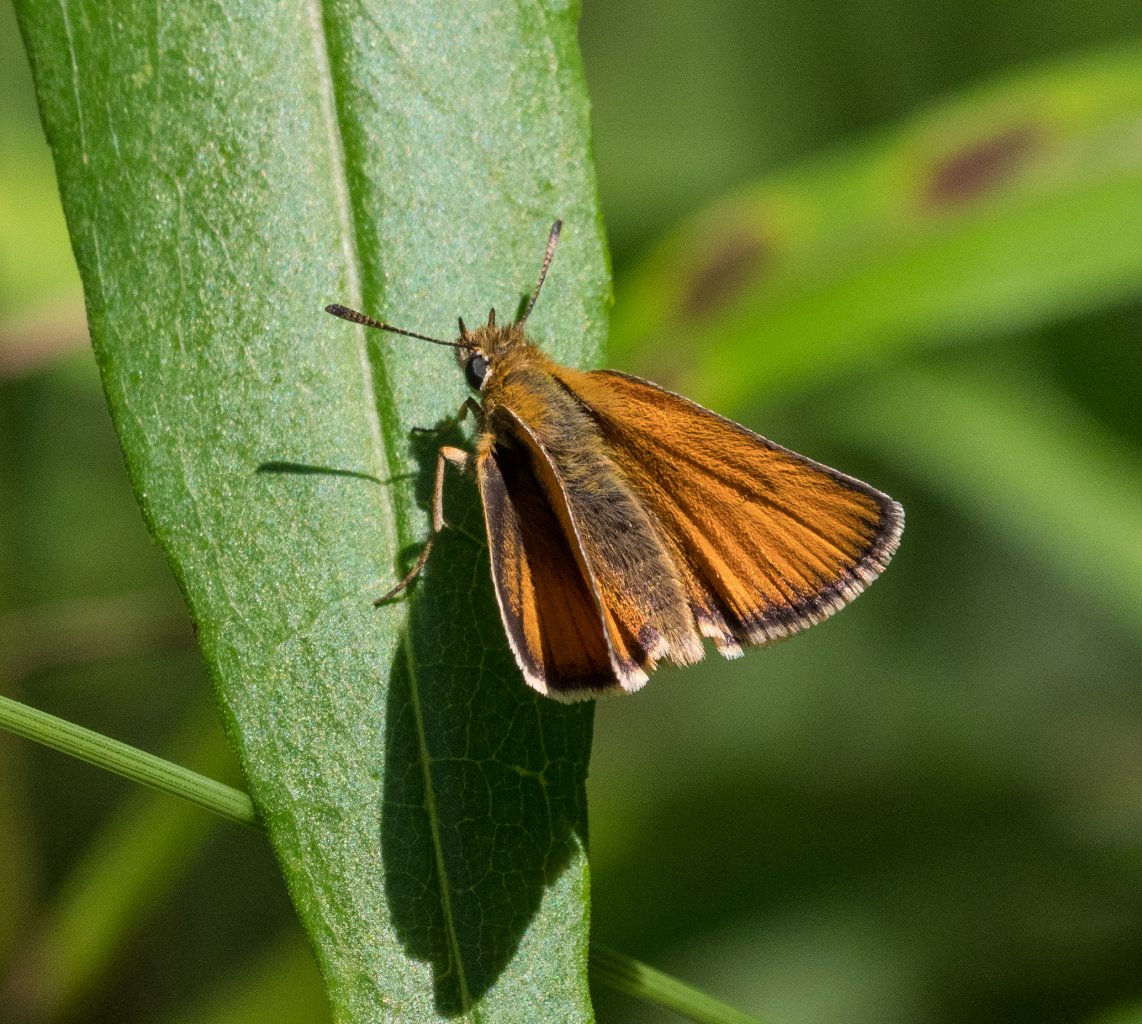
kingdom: Animalia
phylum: Arthropoda
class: Insecta
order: Lepidoptera
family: Hesperiidae
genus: Thymelicus
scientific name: Thymelicus lineola
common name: European Skipper
